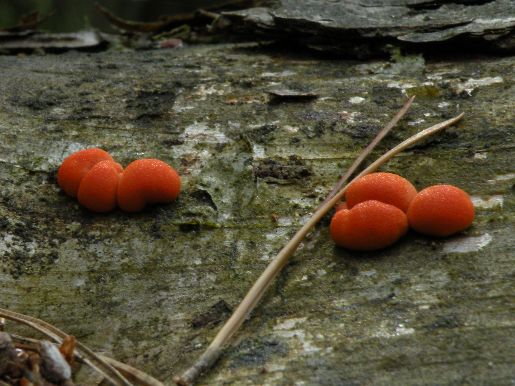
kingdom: Protozoa
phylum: Mycetozoa
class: Myxomycetes
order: Cribrariales
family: Tubiferaceae
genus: Lycogala
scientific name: Lycogala epidendrum
